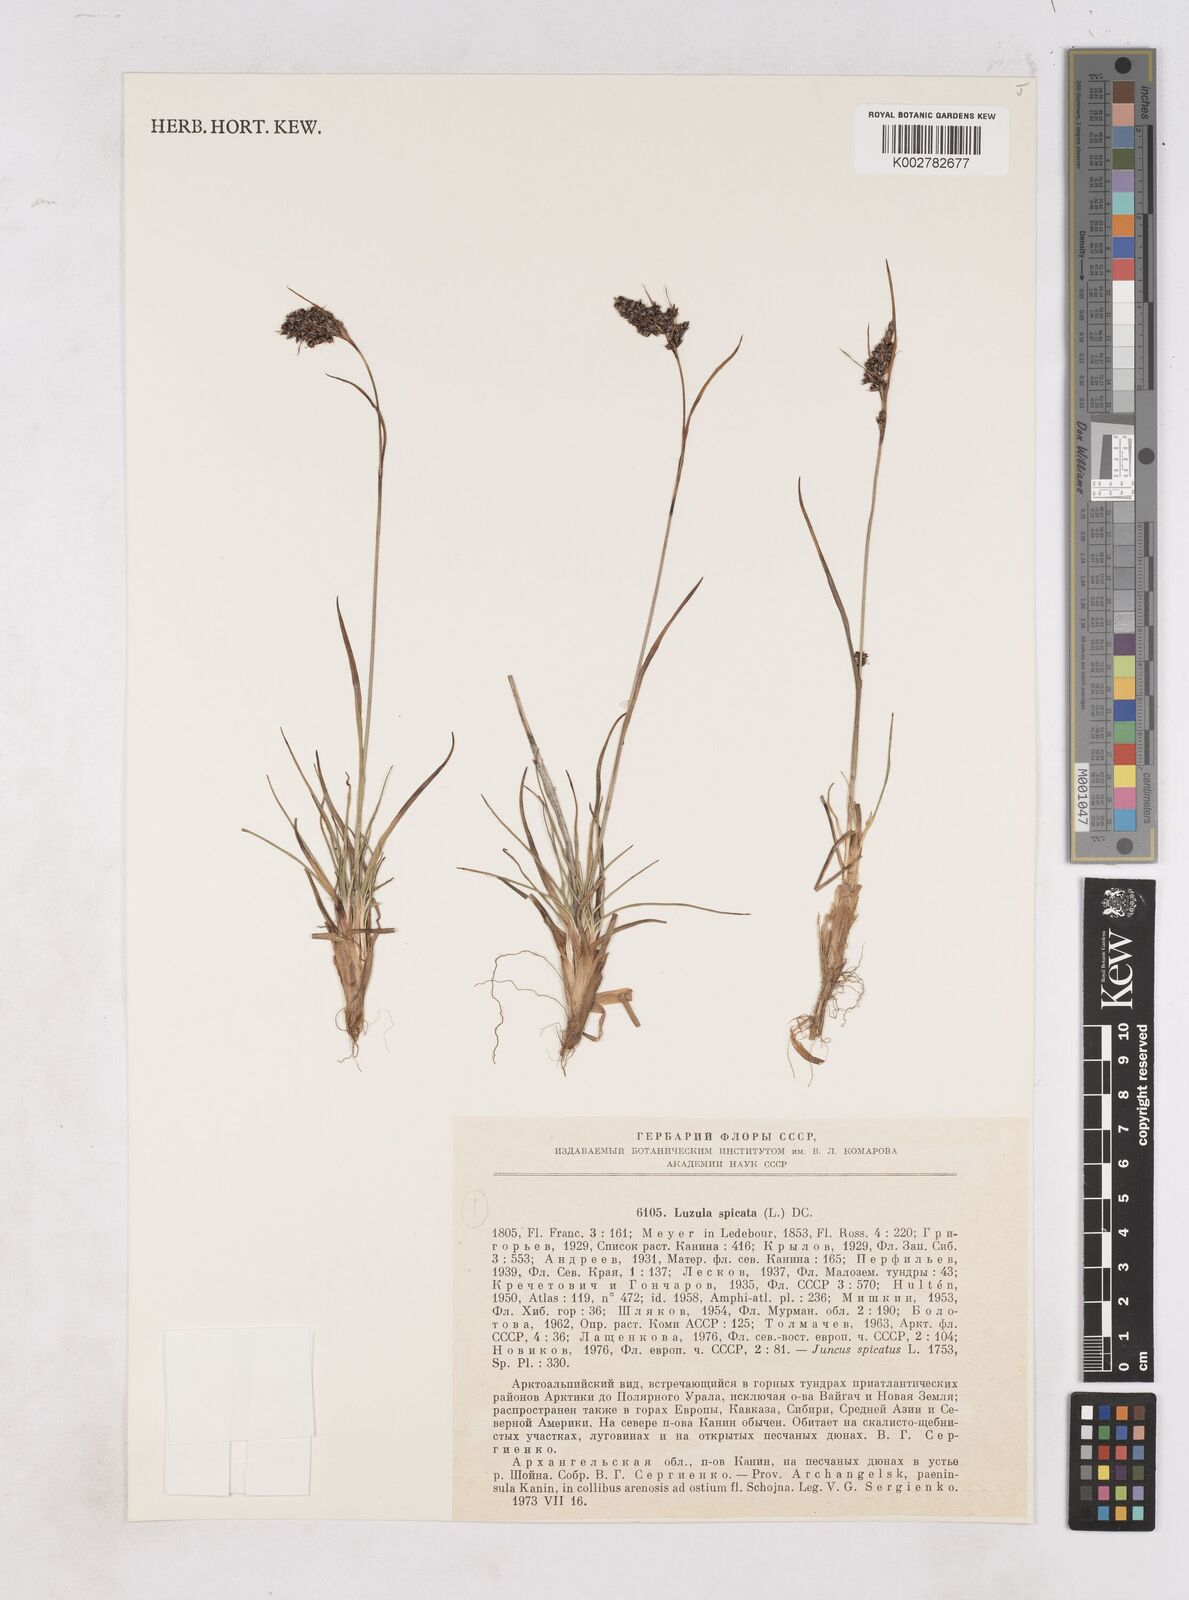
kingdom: Plantae
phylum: Tracheophyta
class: Liliopsida
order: Poales
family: Juncaceae
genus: Luzula
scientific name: Luzula spicata
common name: Spiked wood-rush
